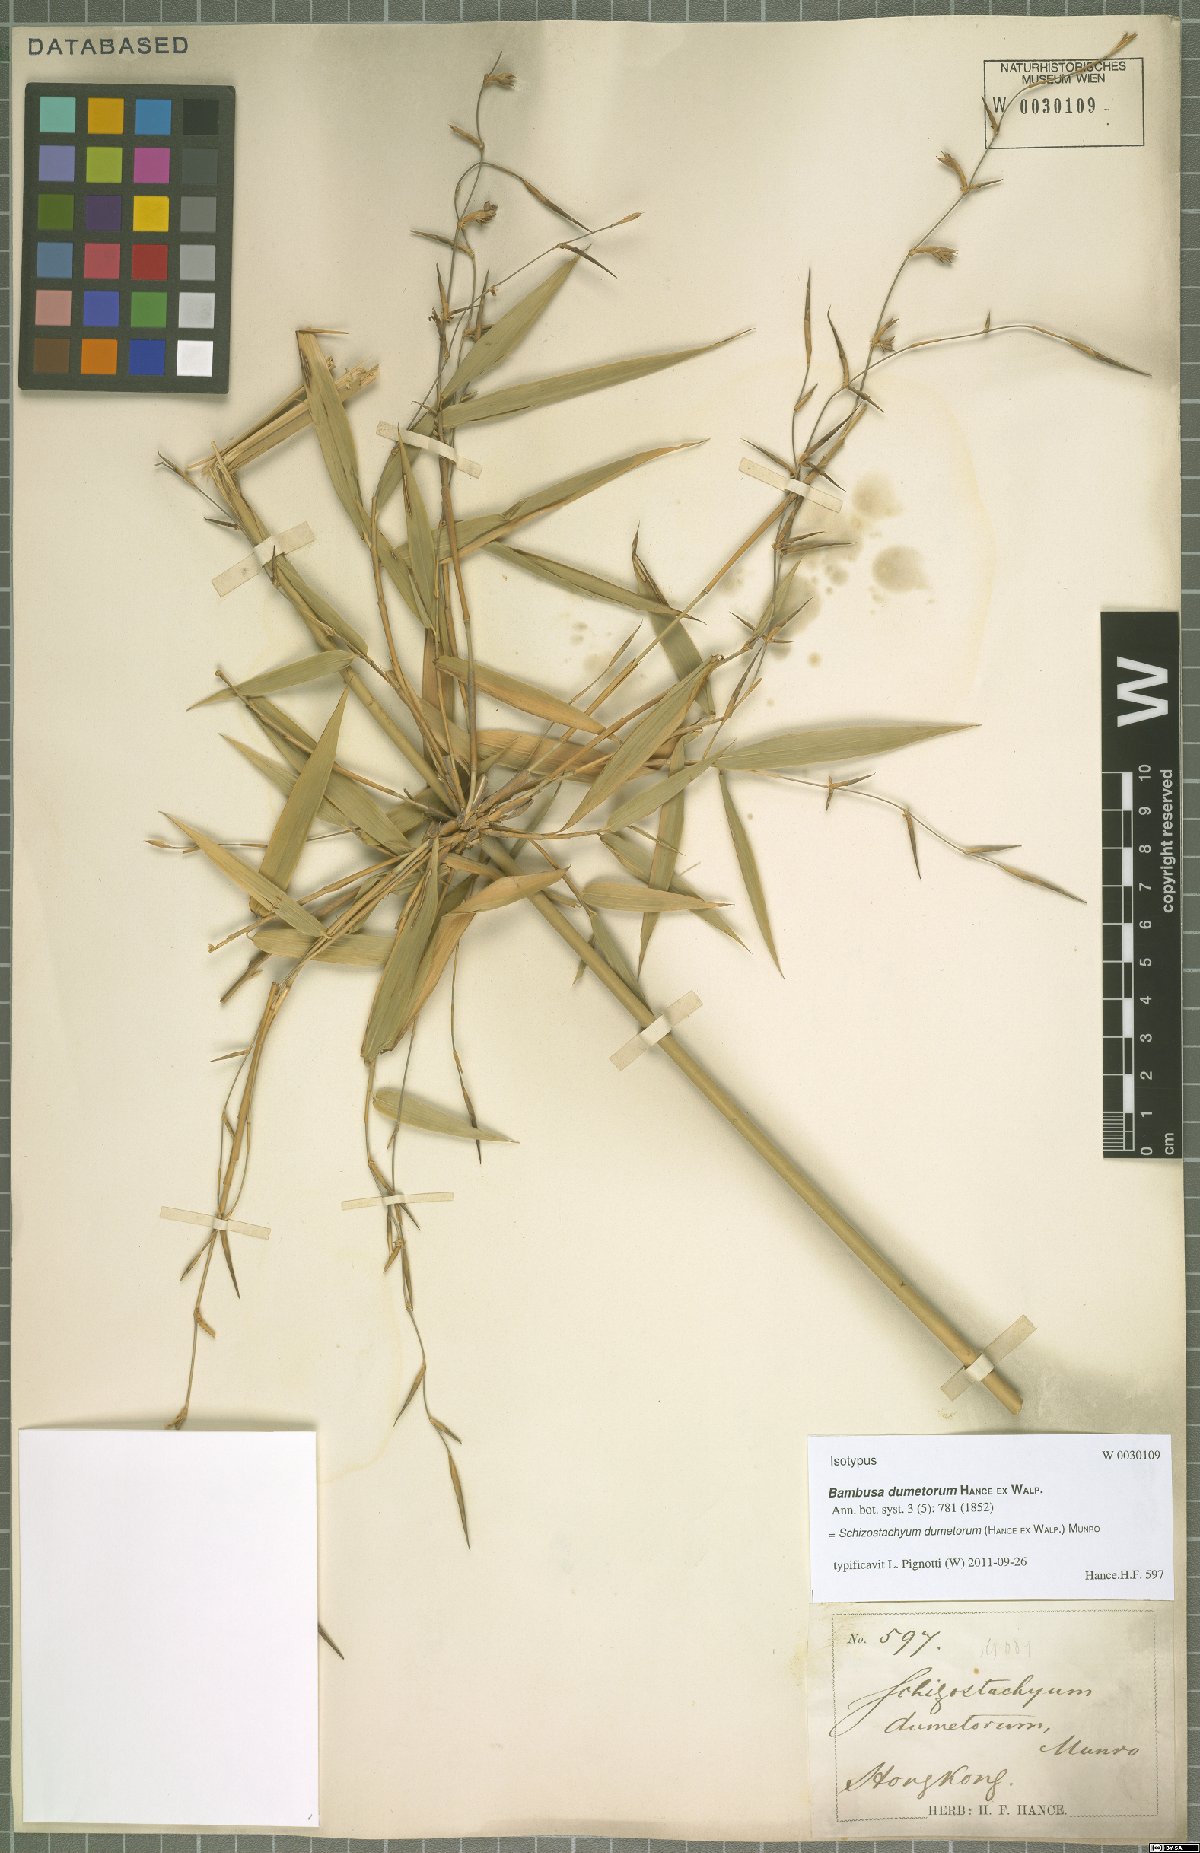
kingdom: Plantae
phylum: Tracheophyta
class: Liliopsida
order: Poales
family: Poaceae
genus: Schizostachyum
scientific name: Schizostachyum dumetorum
